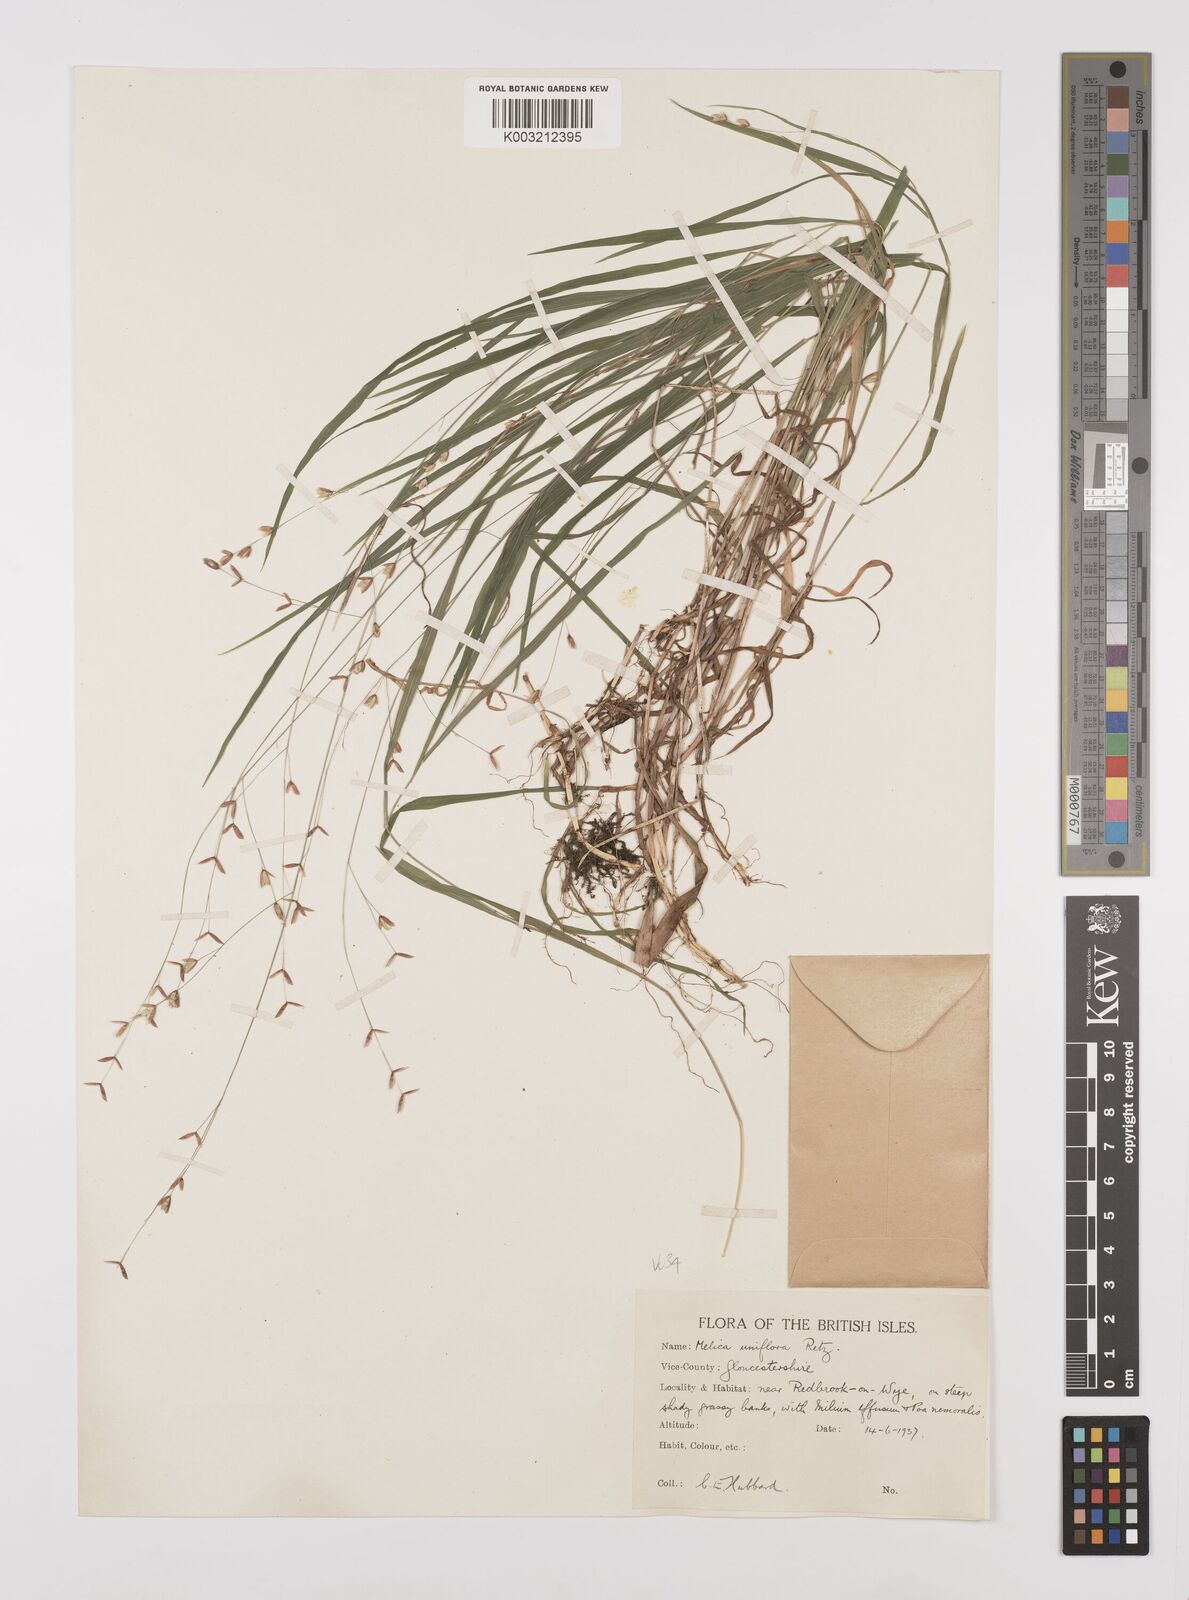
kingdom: Plantae
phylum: Tracheophyta
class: Liliopsida
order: Poales
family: Poaceae
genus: Melica
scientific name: Melica uniflora
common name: Wood melick
